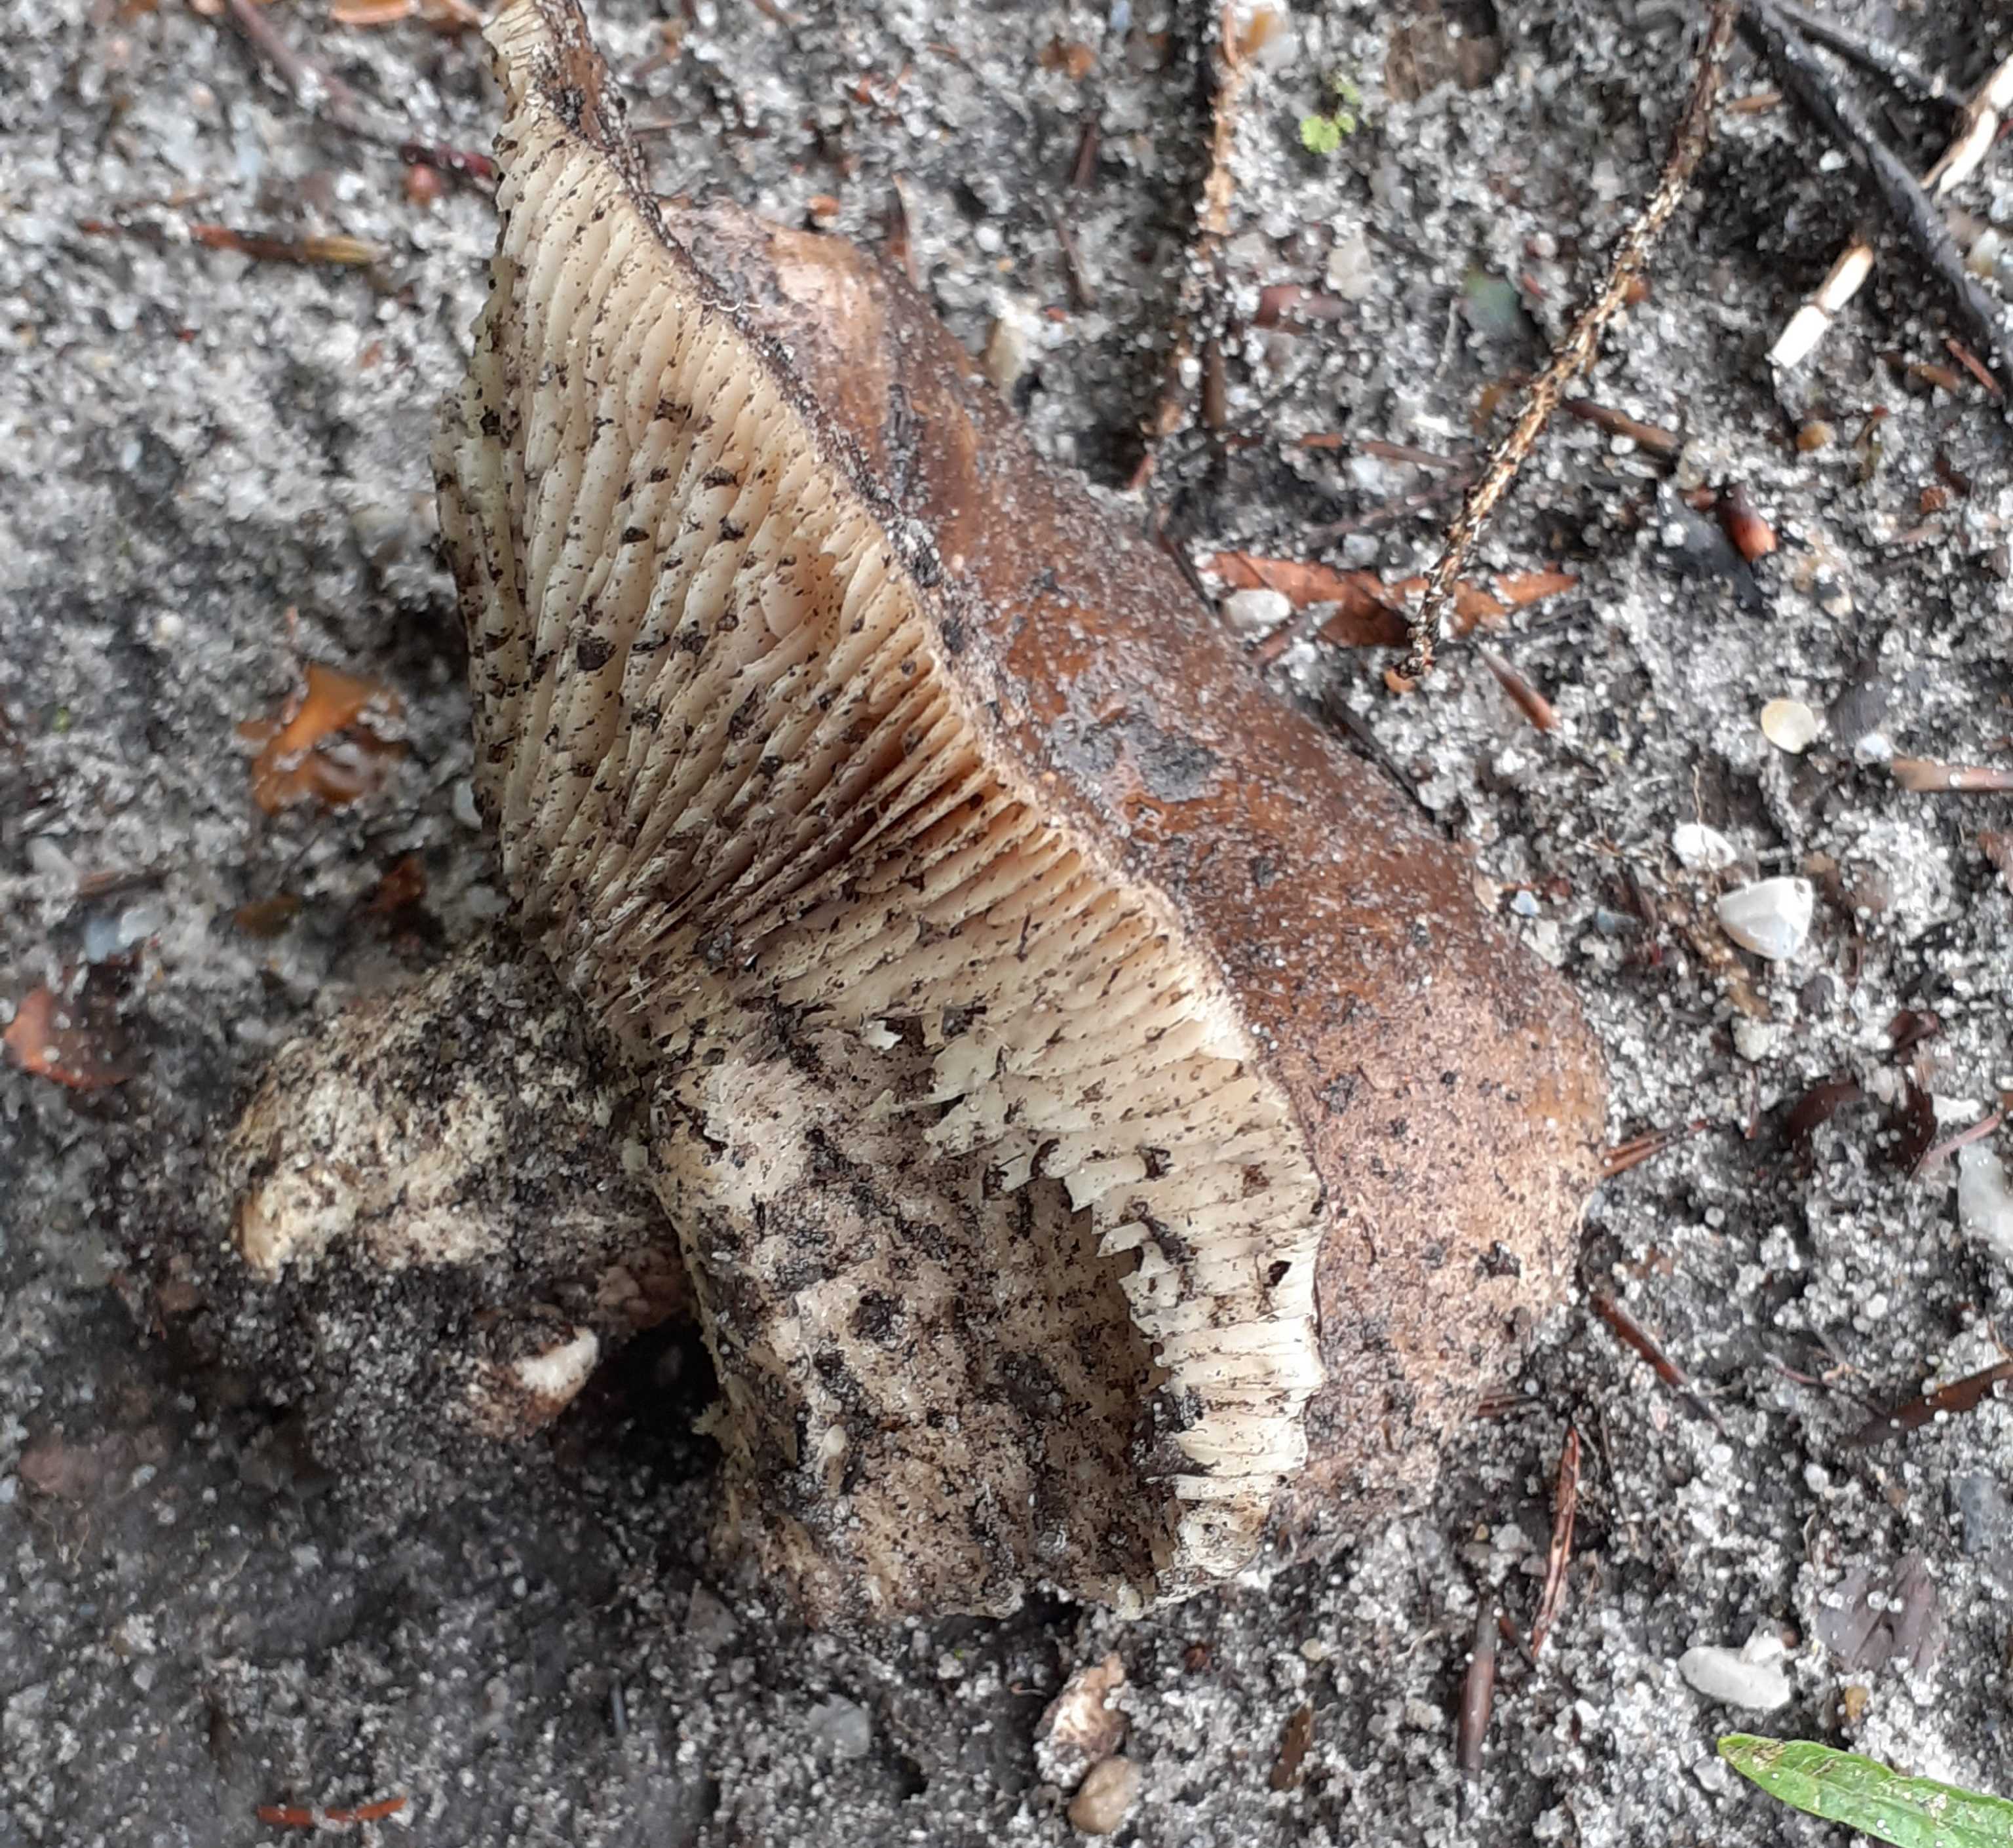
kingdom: Fungi
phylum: Basidiomycota
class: Agaricomycetes
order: Russulales
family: Russulaceae
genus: Russula
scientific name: Russula adusta
